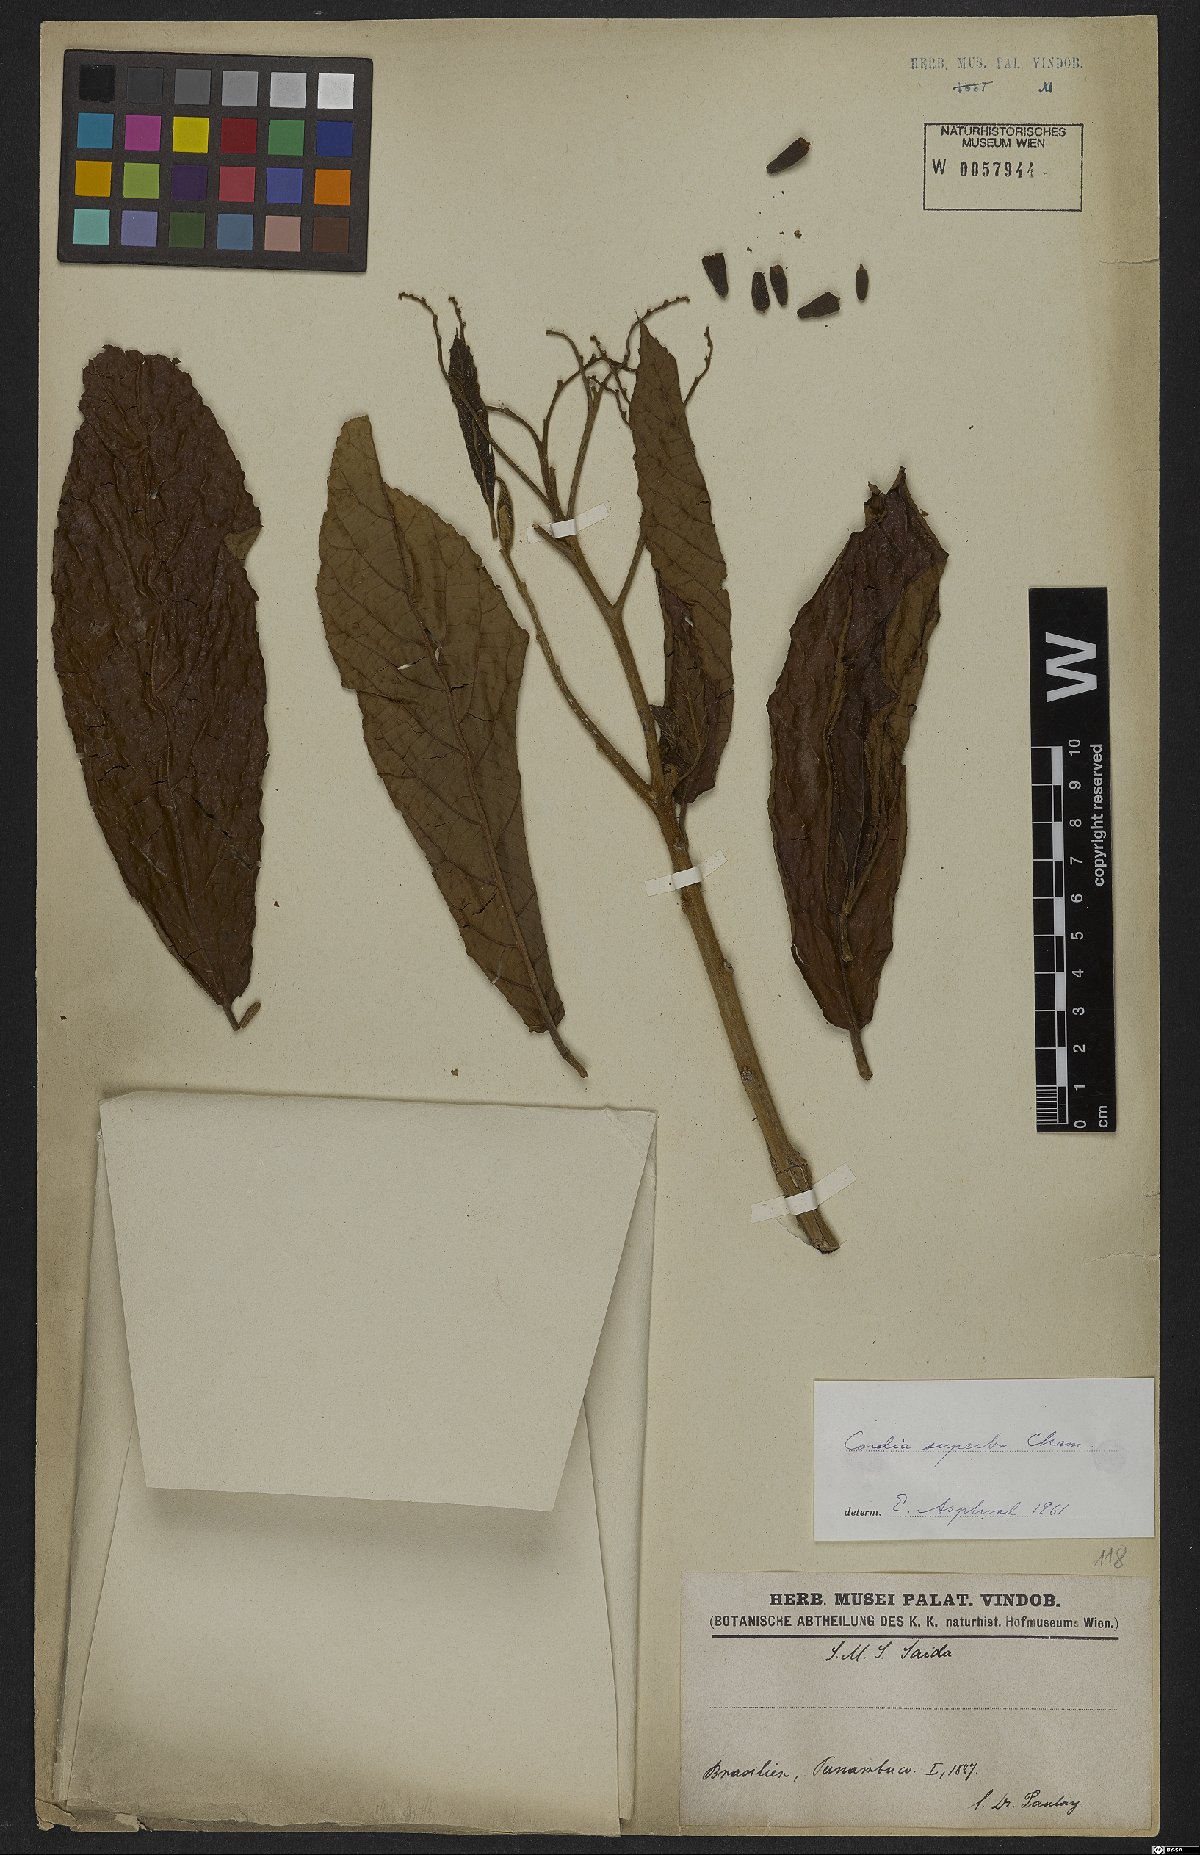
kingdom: Plantae
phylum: Tracheophyta
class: Magnoliopsida
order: Boraginales
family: Cordiaceae
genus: Cordia
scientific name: Cordia superba
